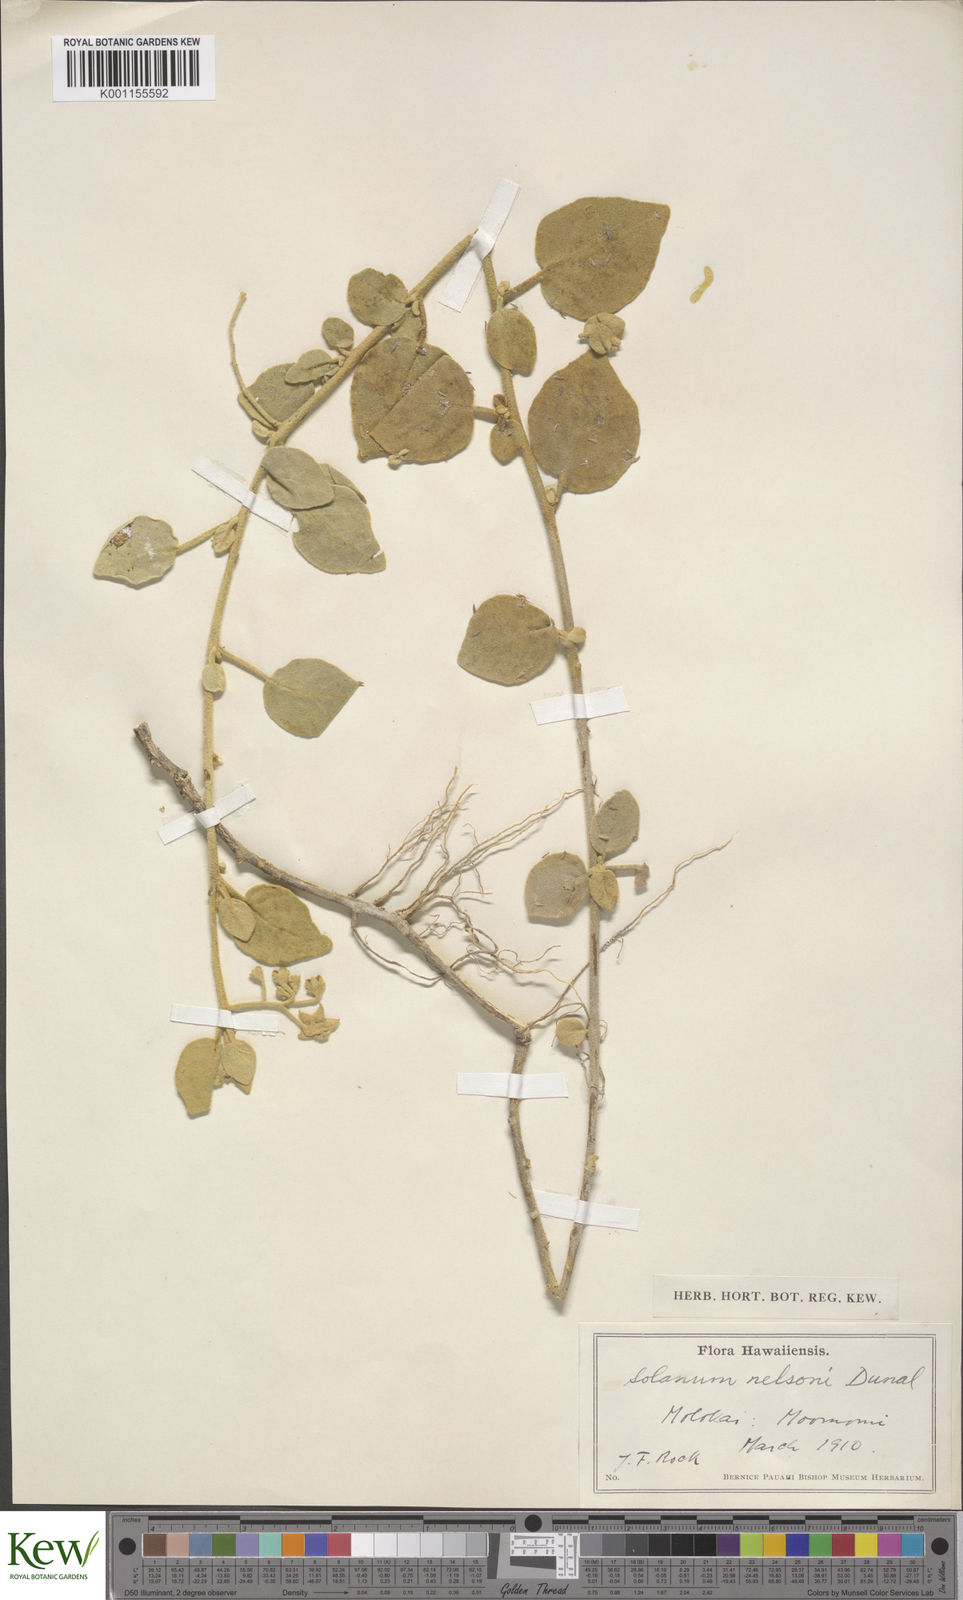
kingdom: Plantae
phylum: Tracheophyta
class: Magnoliopsida
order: Solanales
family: Solanaceae
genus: Solanum
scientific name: Solanum nelsonii
